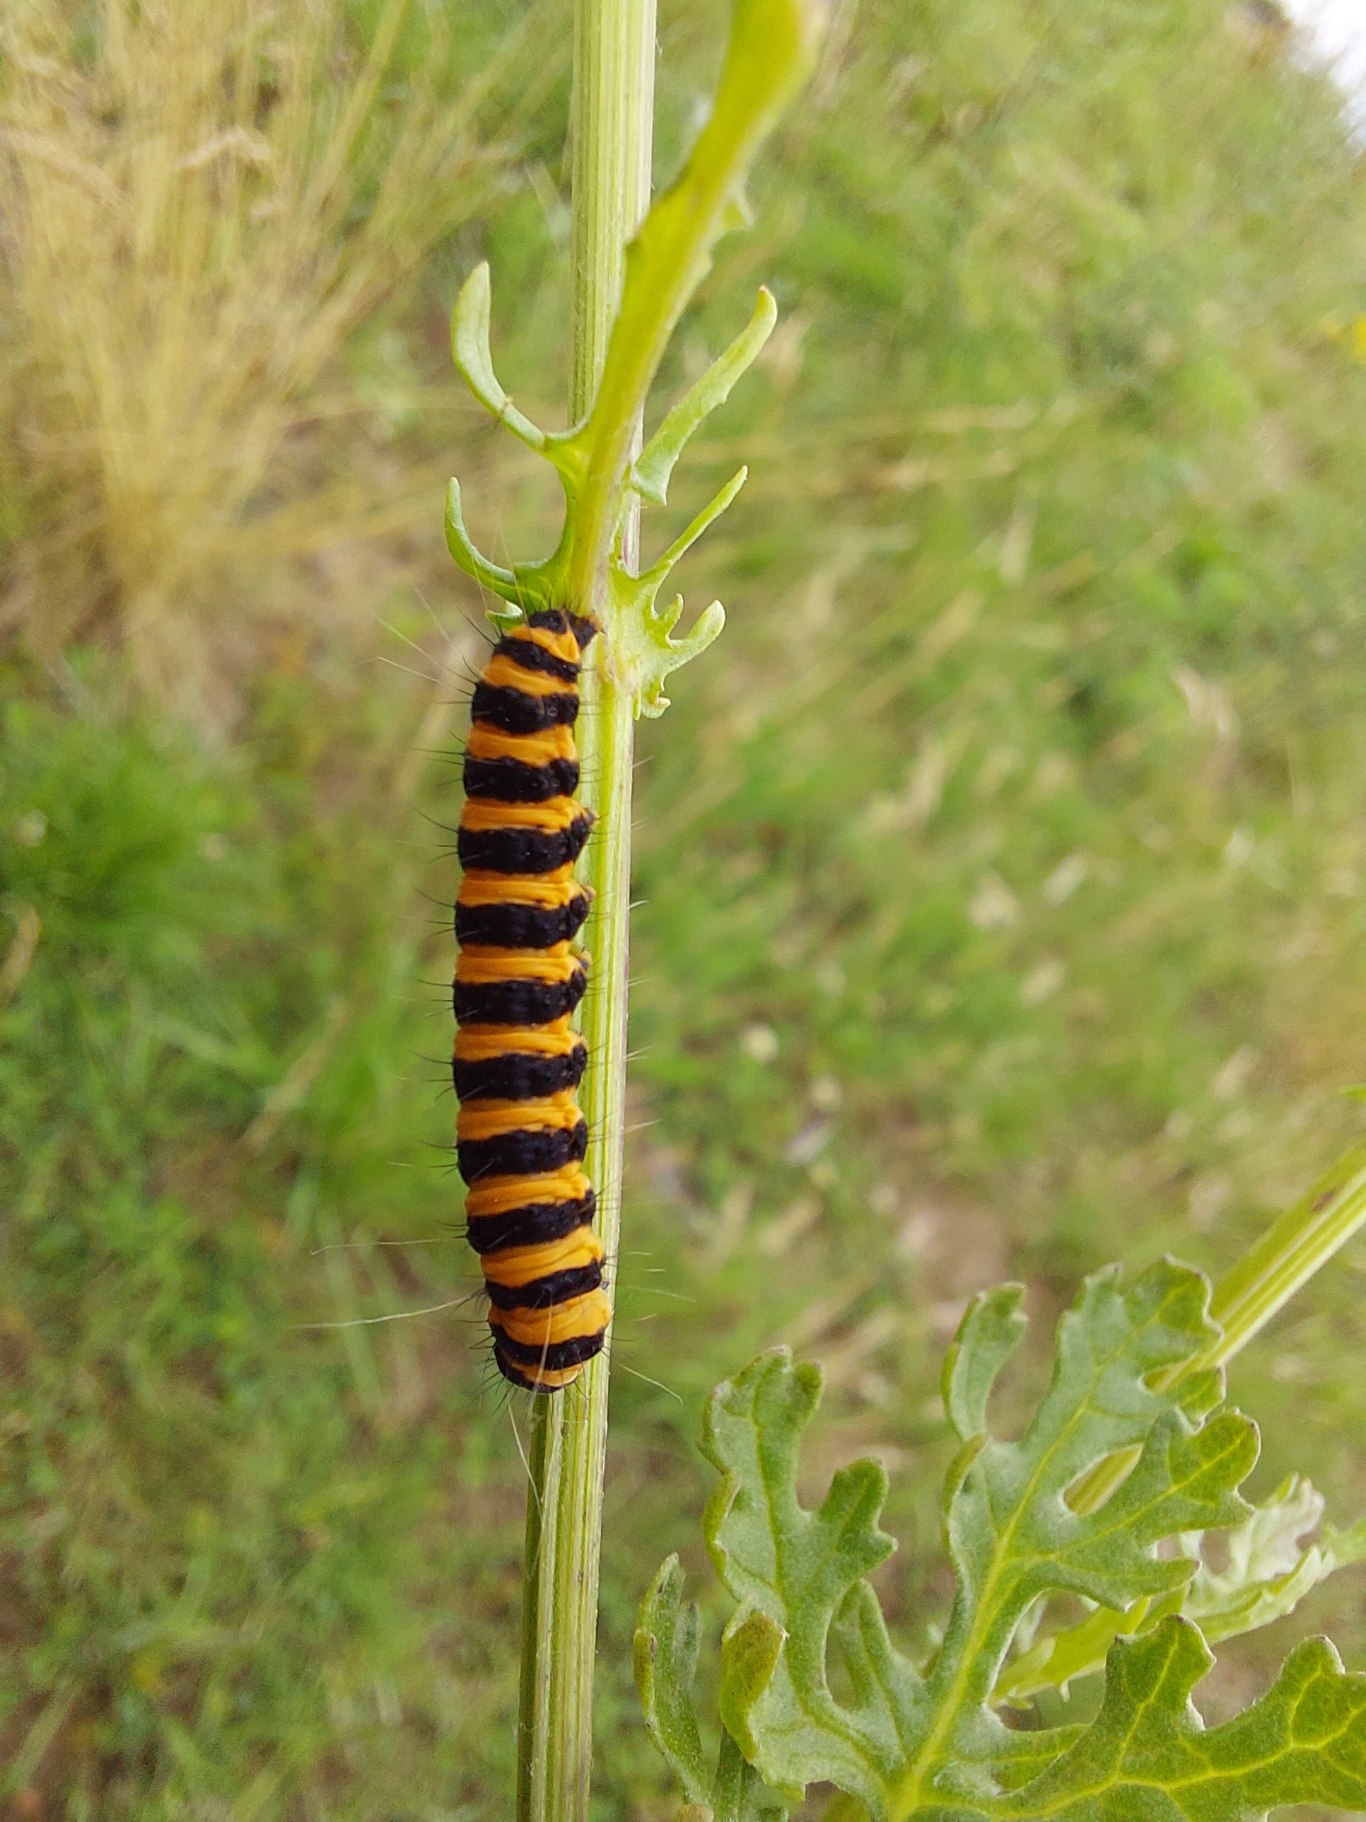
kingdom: Animalia
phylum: Arthropoda
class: Insecta
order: Lepidoptera
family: Erebidae
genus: Tyria
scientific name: Tyria jacobaeae
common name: Blodplet
